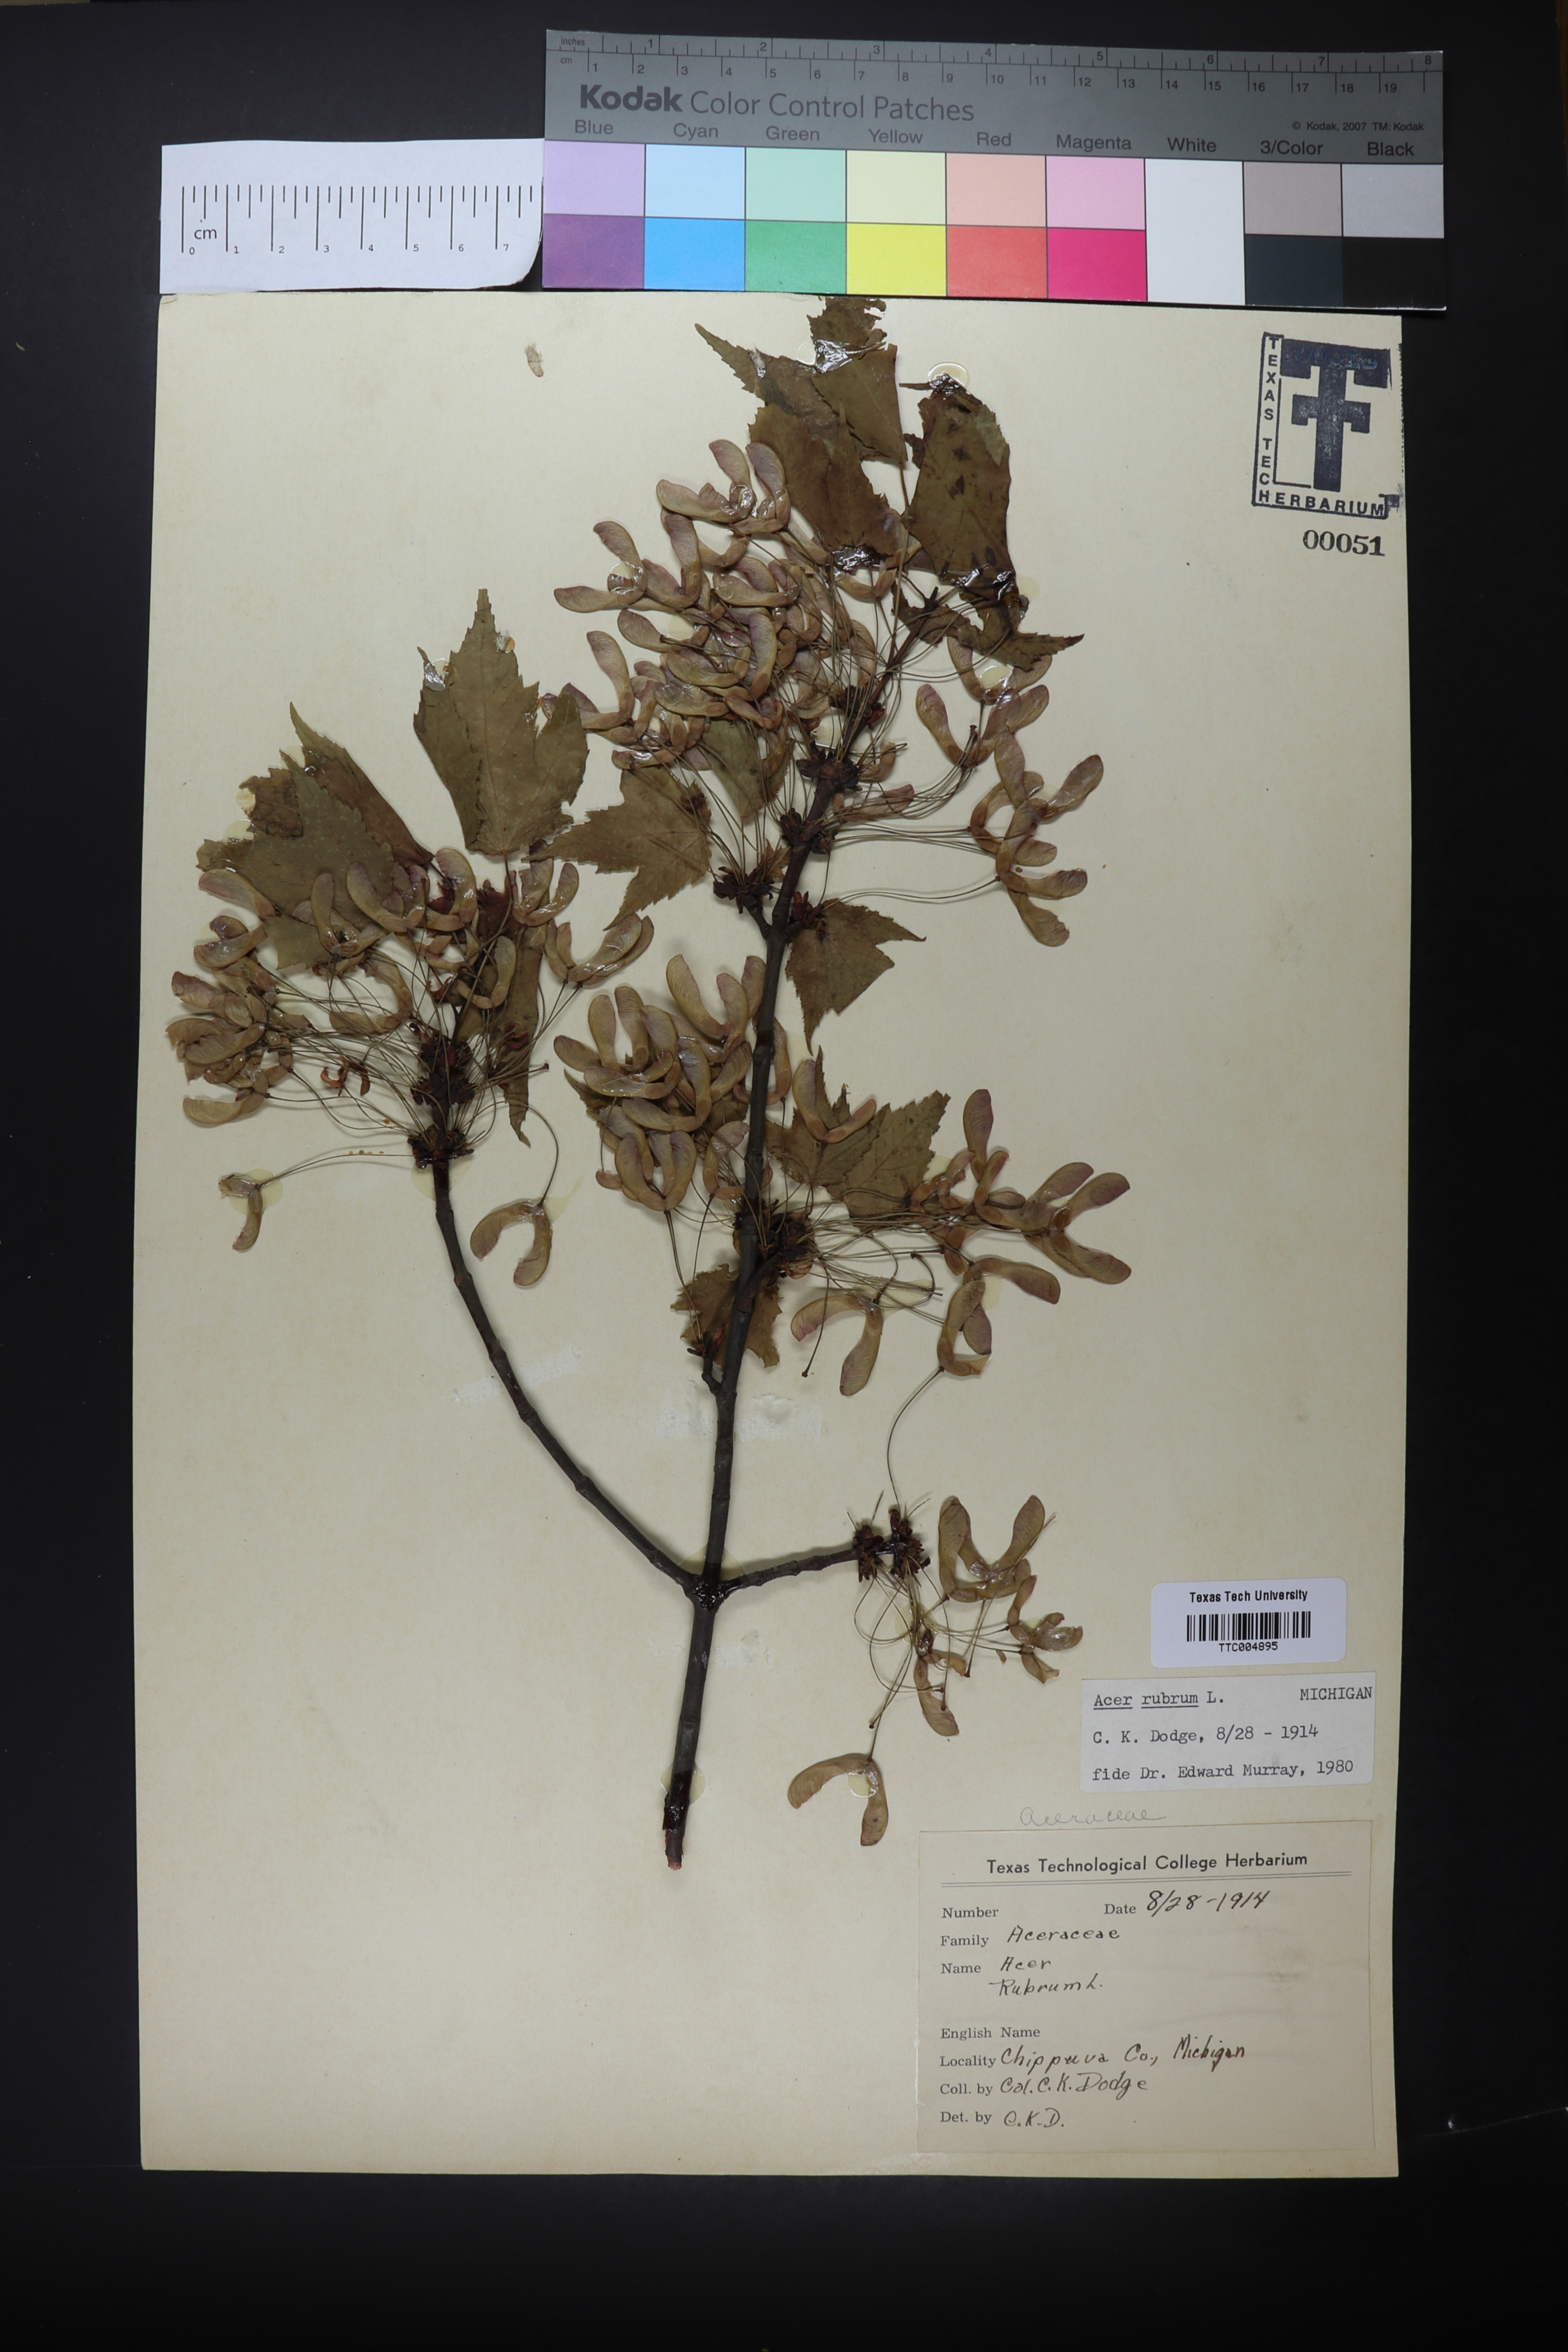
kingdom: Plantae
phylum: Tracheophyta
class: Magnoliopsida
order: Sapindales
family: Sapindaceae
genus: Acer
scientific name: Acer rubrum
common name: Red maple
